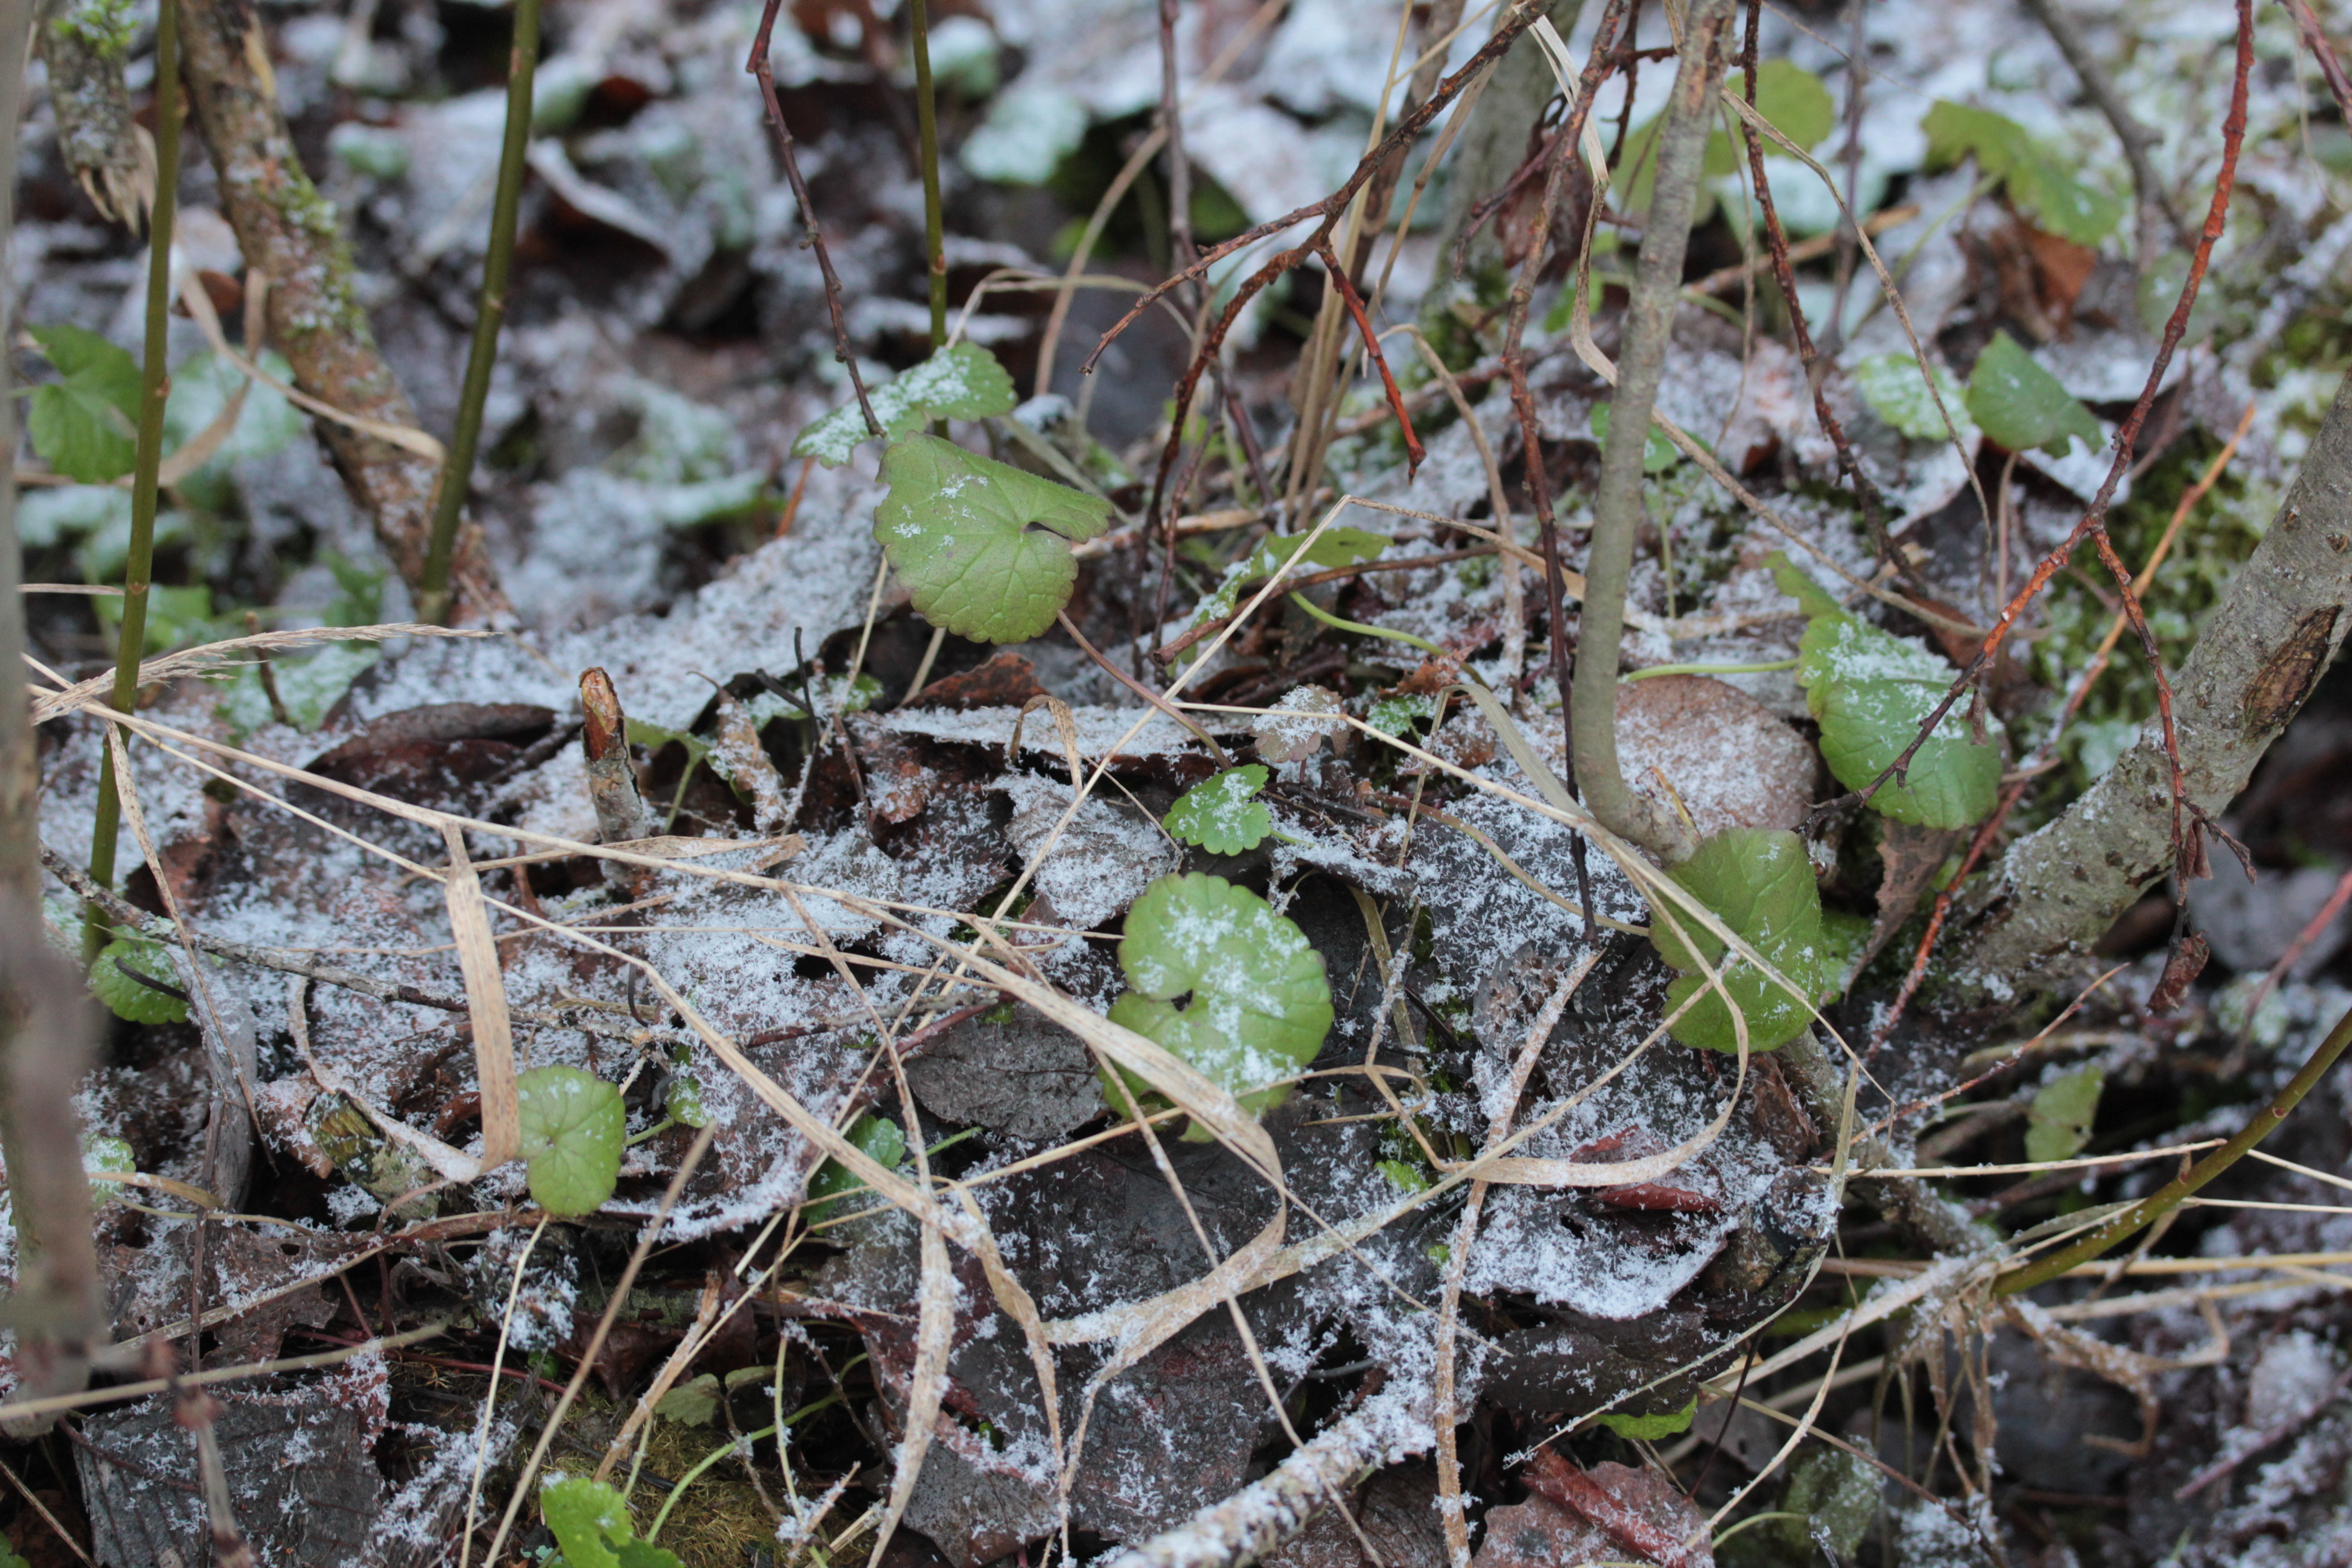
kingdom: Plantae
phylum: Tracheophyta
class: Magnoliopsida
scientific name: Magnoliopsida
